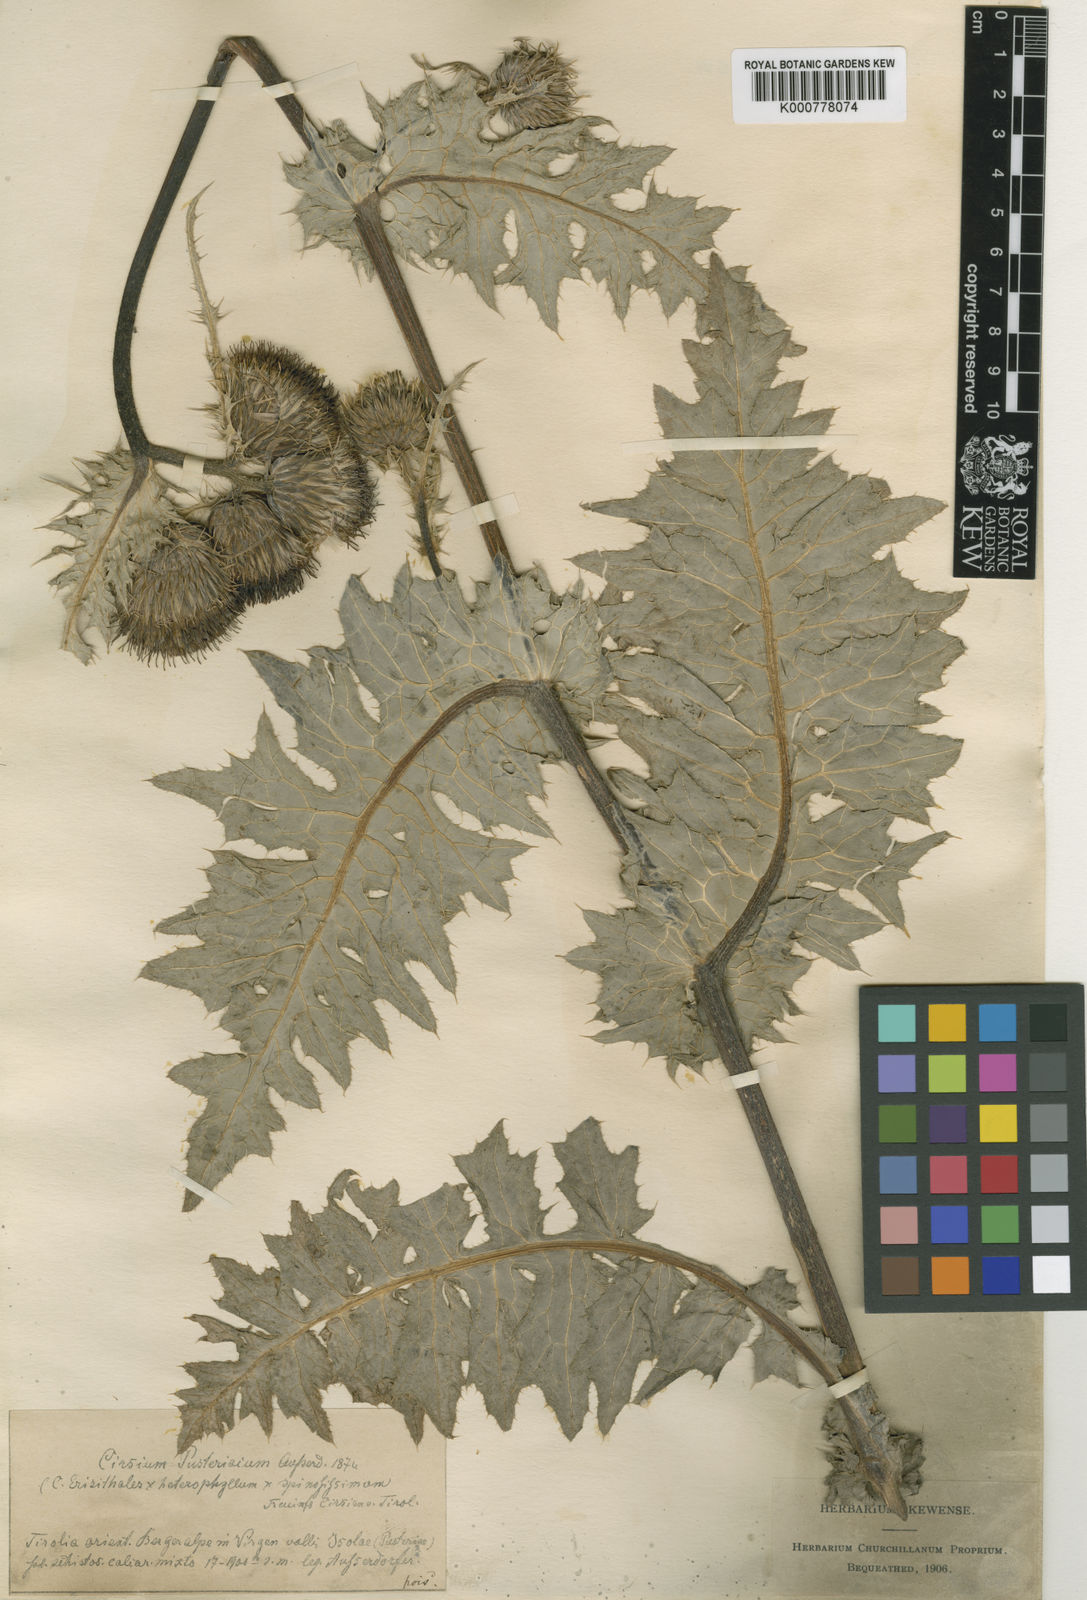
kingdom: Plantae
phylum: Tracheophyta
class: Magnoliopsida
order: Asterales
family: Asteraceae
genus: Cirsium
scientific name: Cirsium erisithales
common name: Yellow thistle
